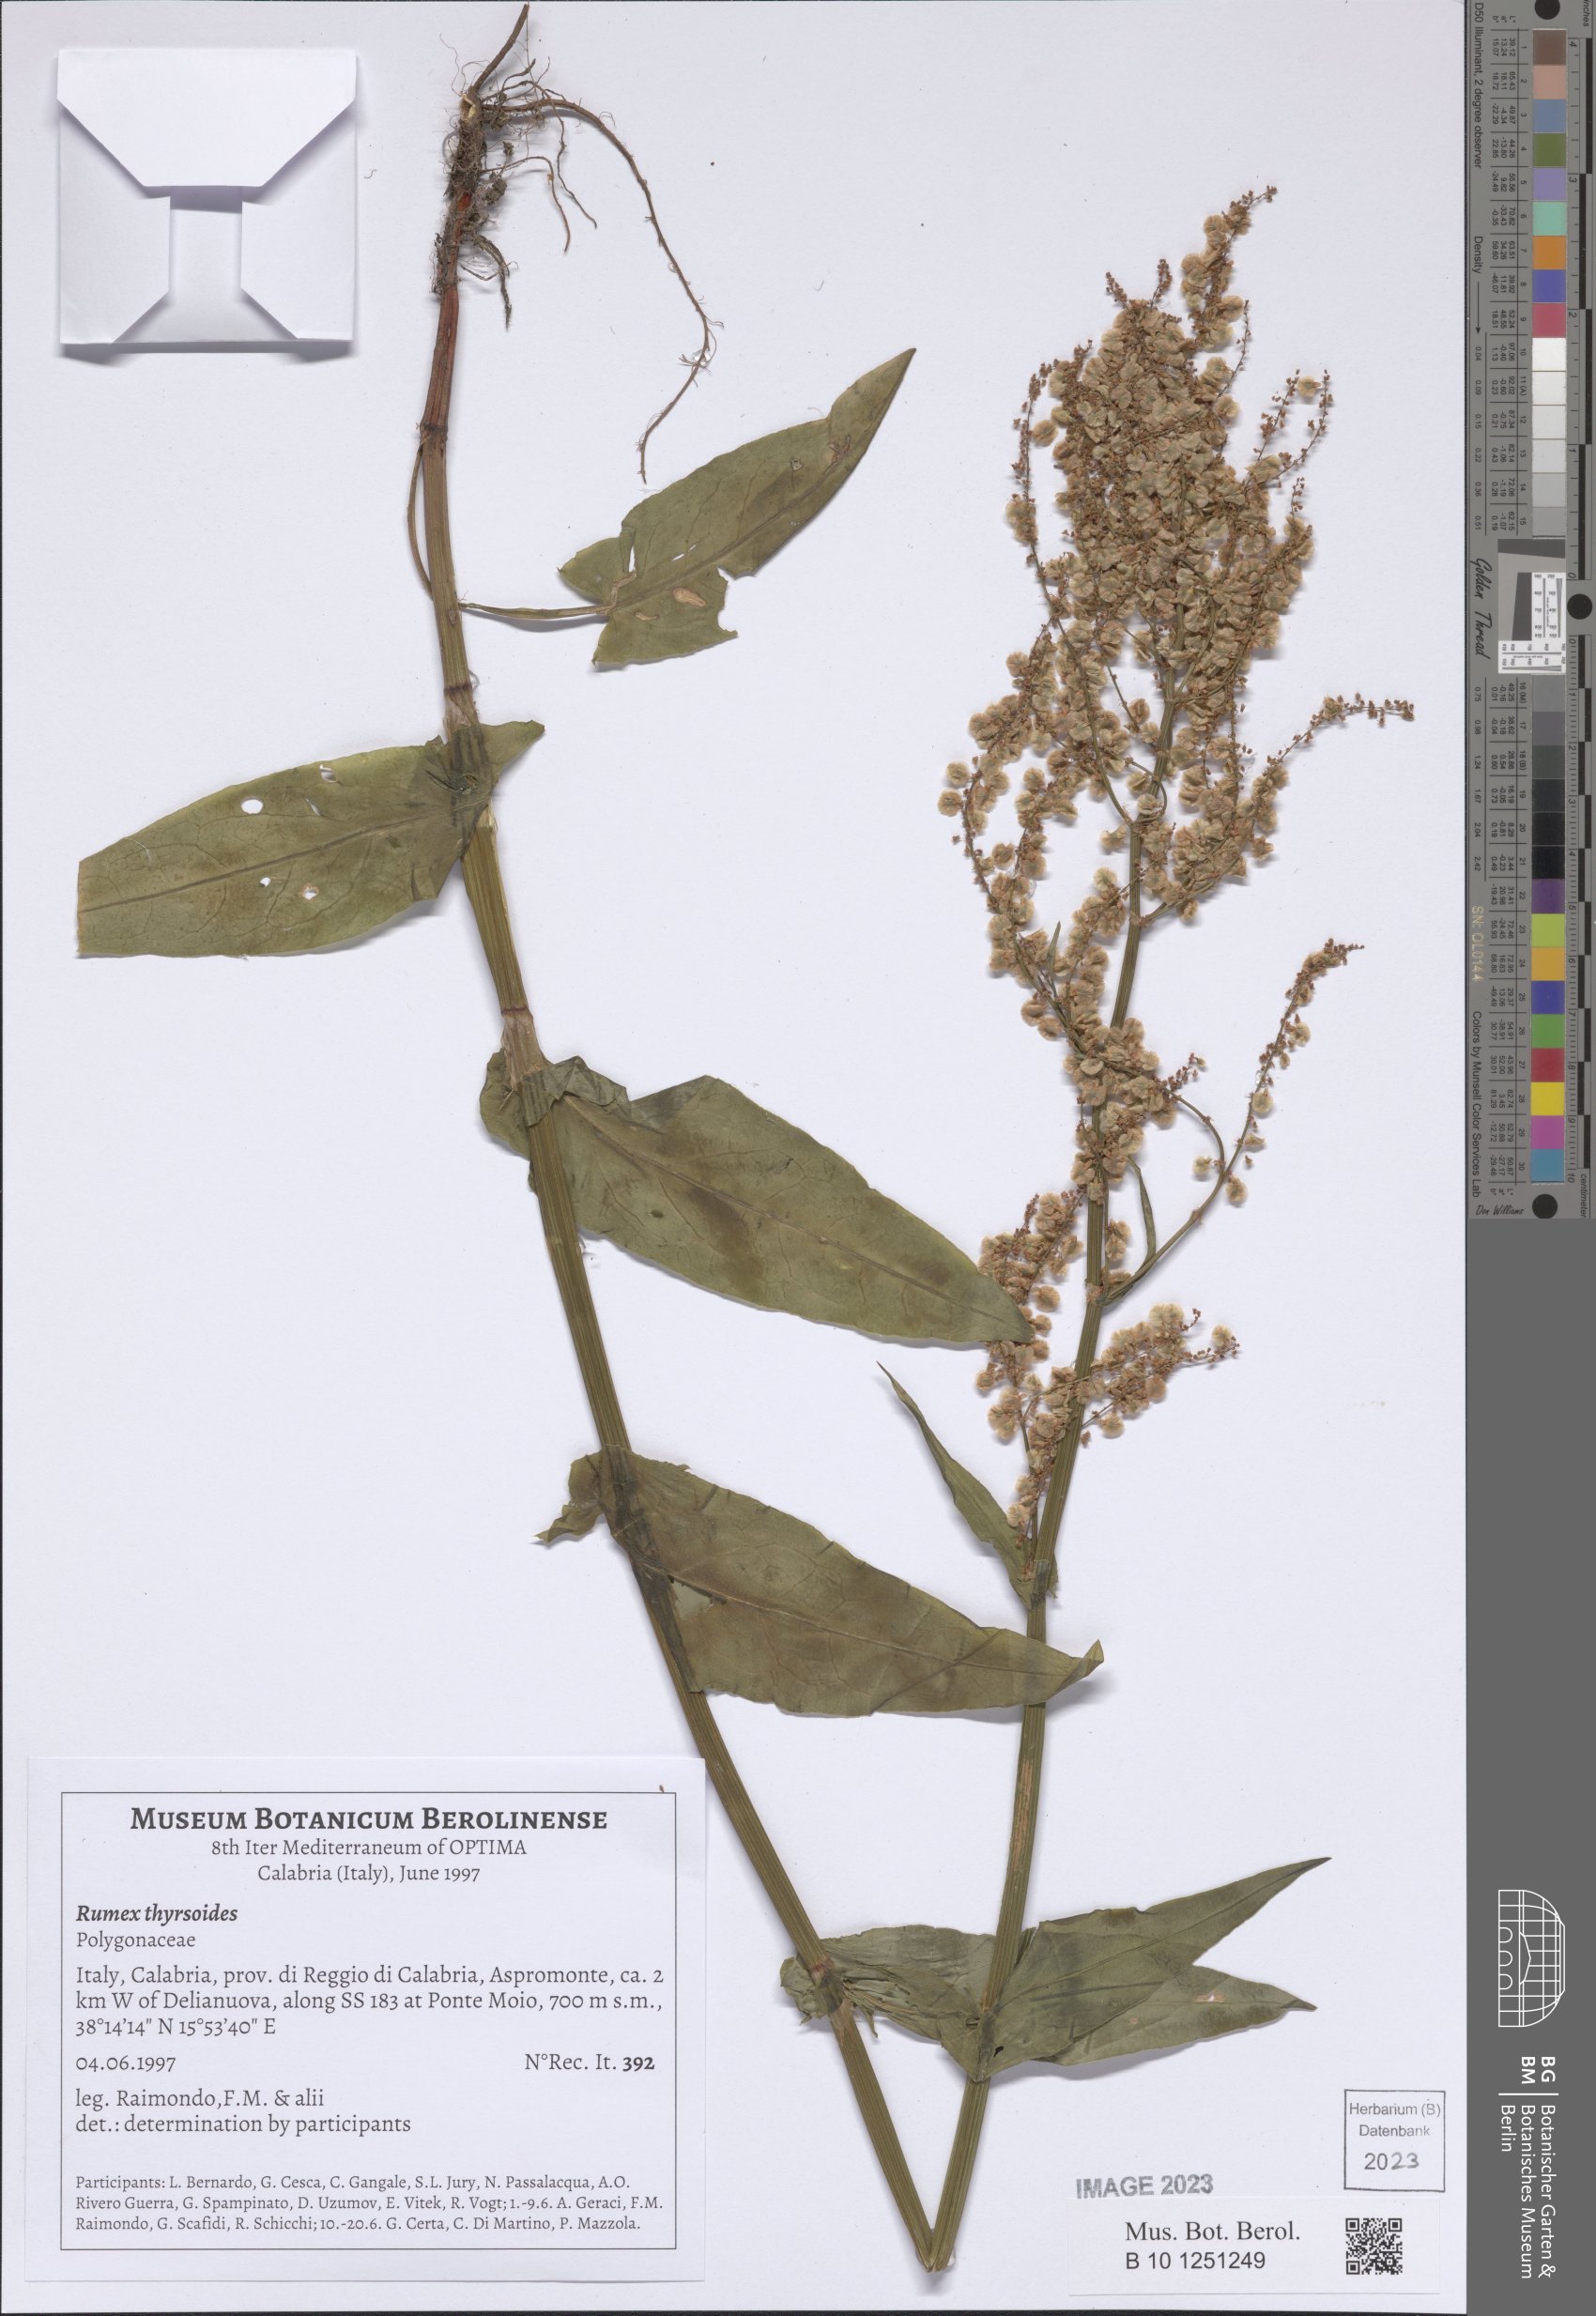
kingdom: Plantae
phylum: Tracheophyta
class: Magnoliopsida
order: Caryophyllales
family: Polygonaceae
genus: Rumex
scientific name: Rumex thyrsoides
